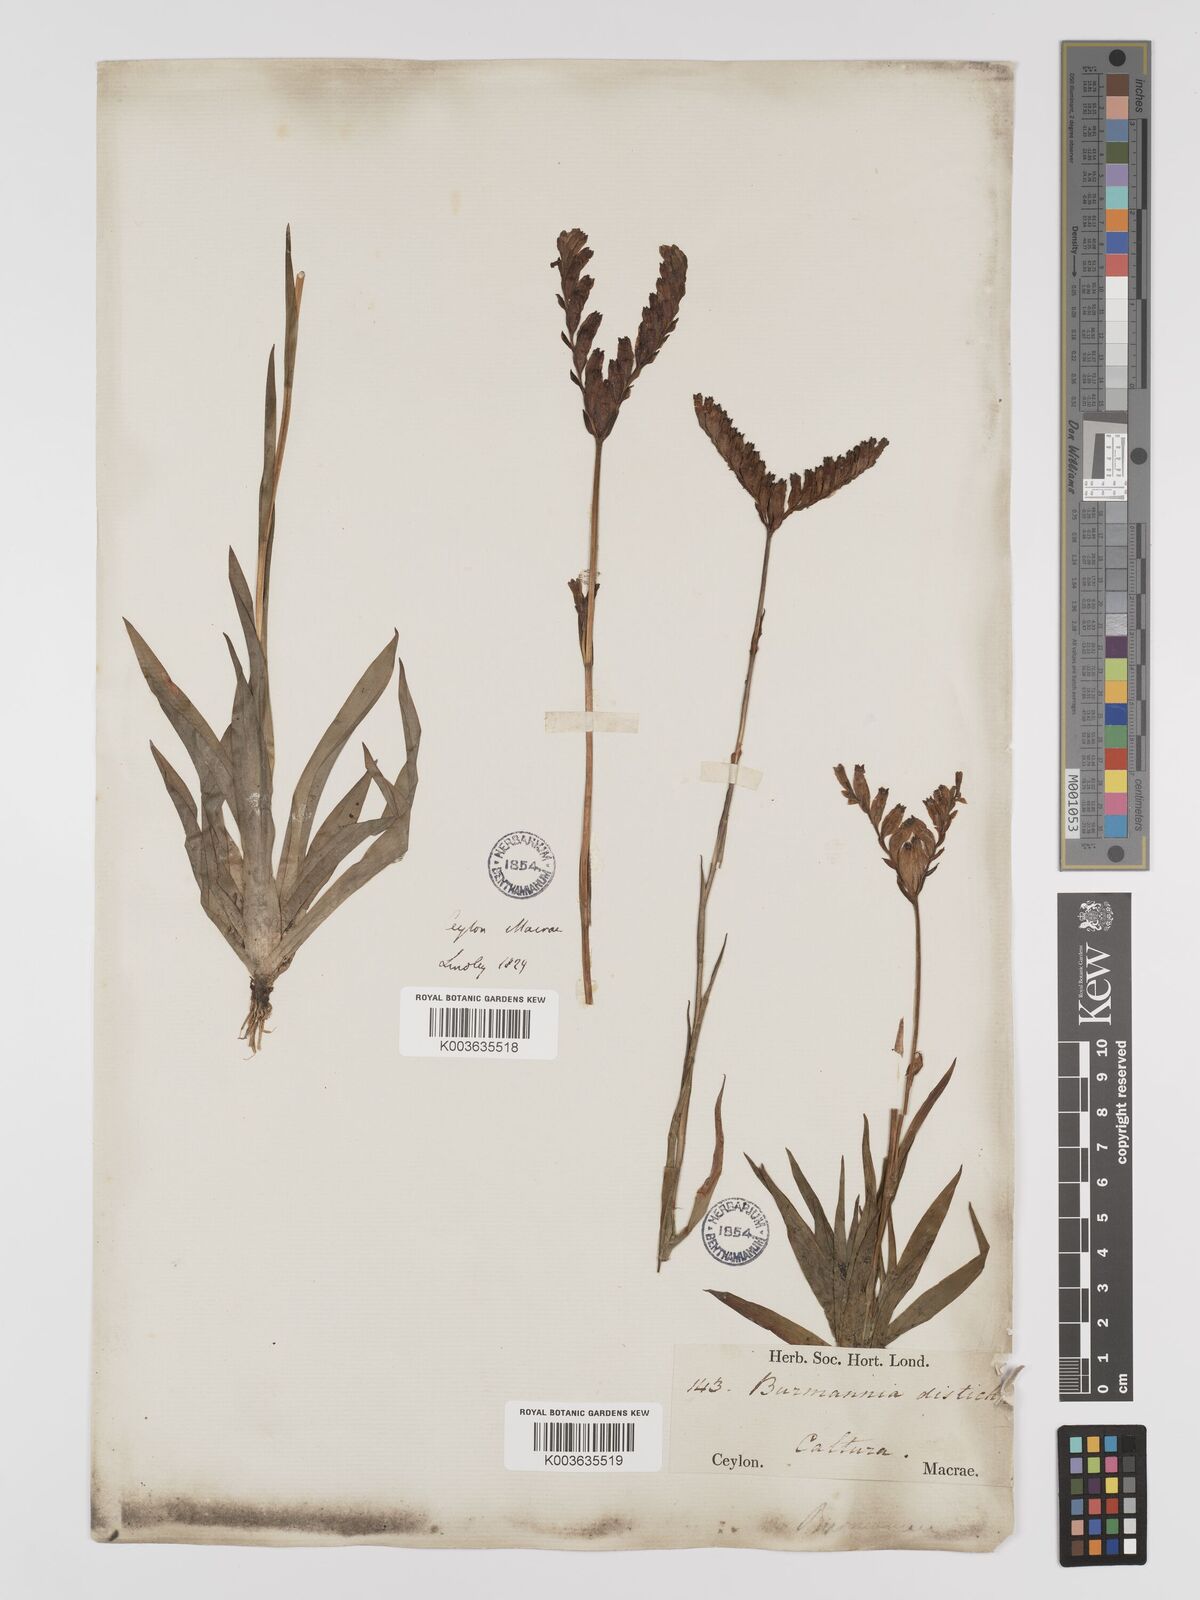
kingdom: Plantae
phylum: Tracheophyta
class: Liliopsida
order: Dioscoreales
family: Burmanniaceae
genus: Burmannia
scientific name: Burmannia disticha
